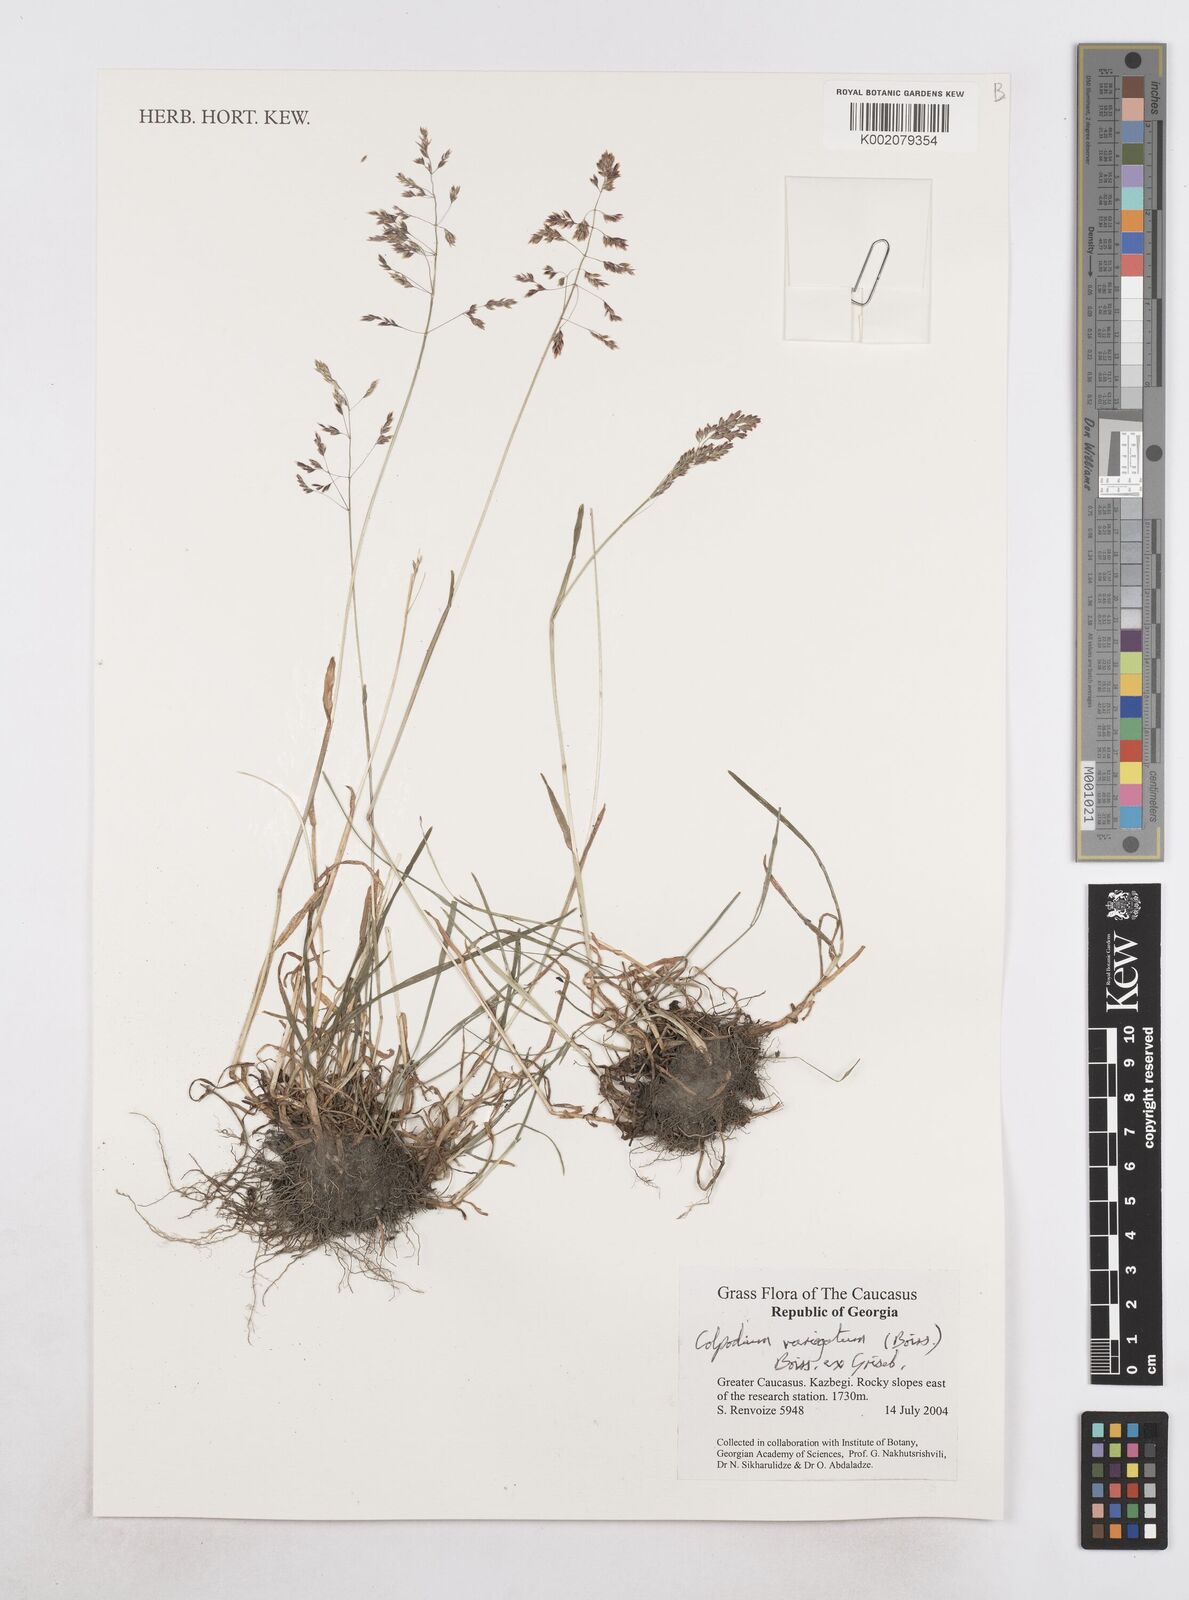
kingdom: Plantae
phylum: Tracheophyta
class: Liliopsida
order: Poales
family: Poaceae
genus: Catabrosella
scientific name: Catabrosella variegata
